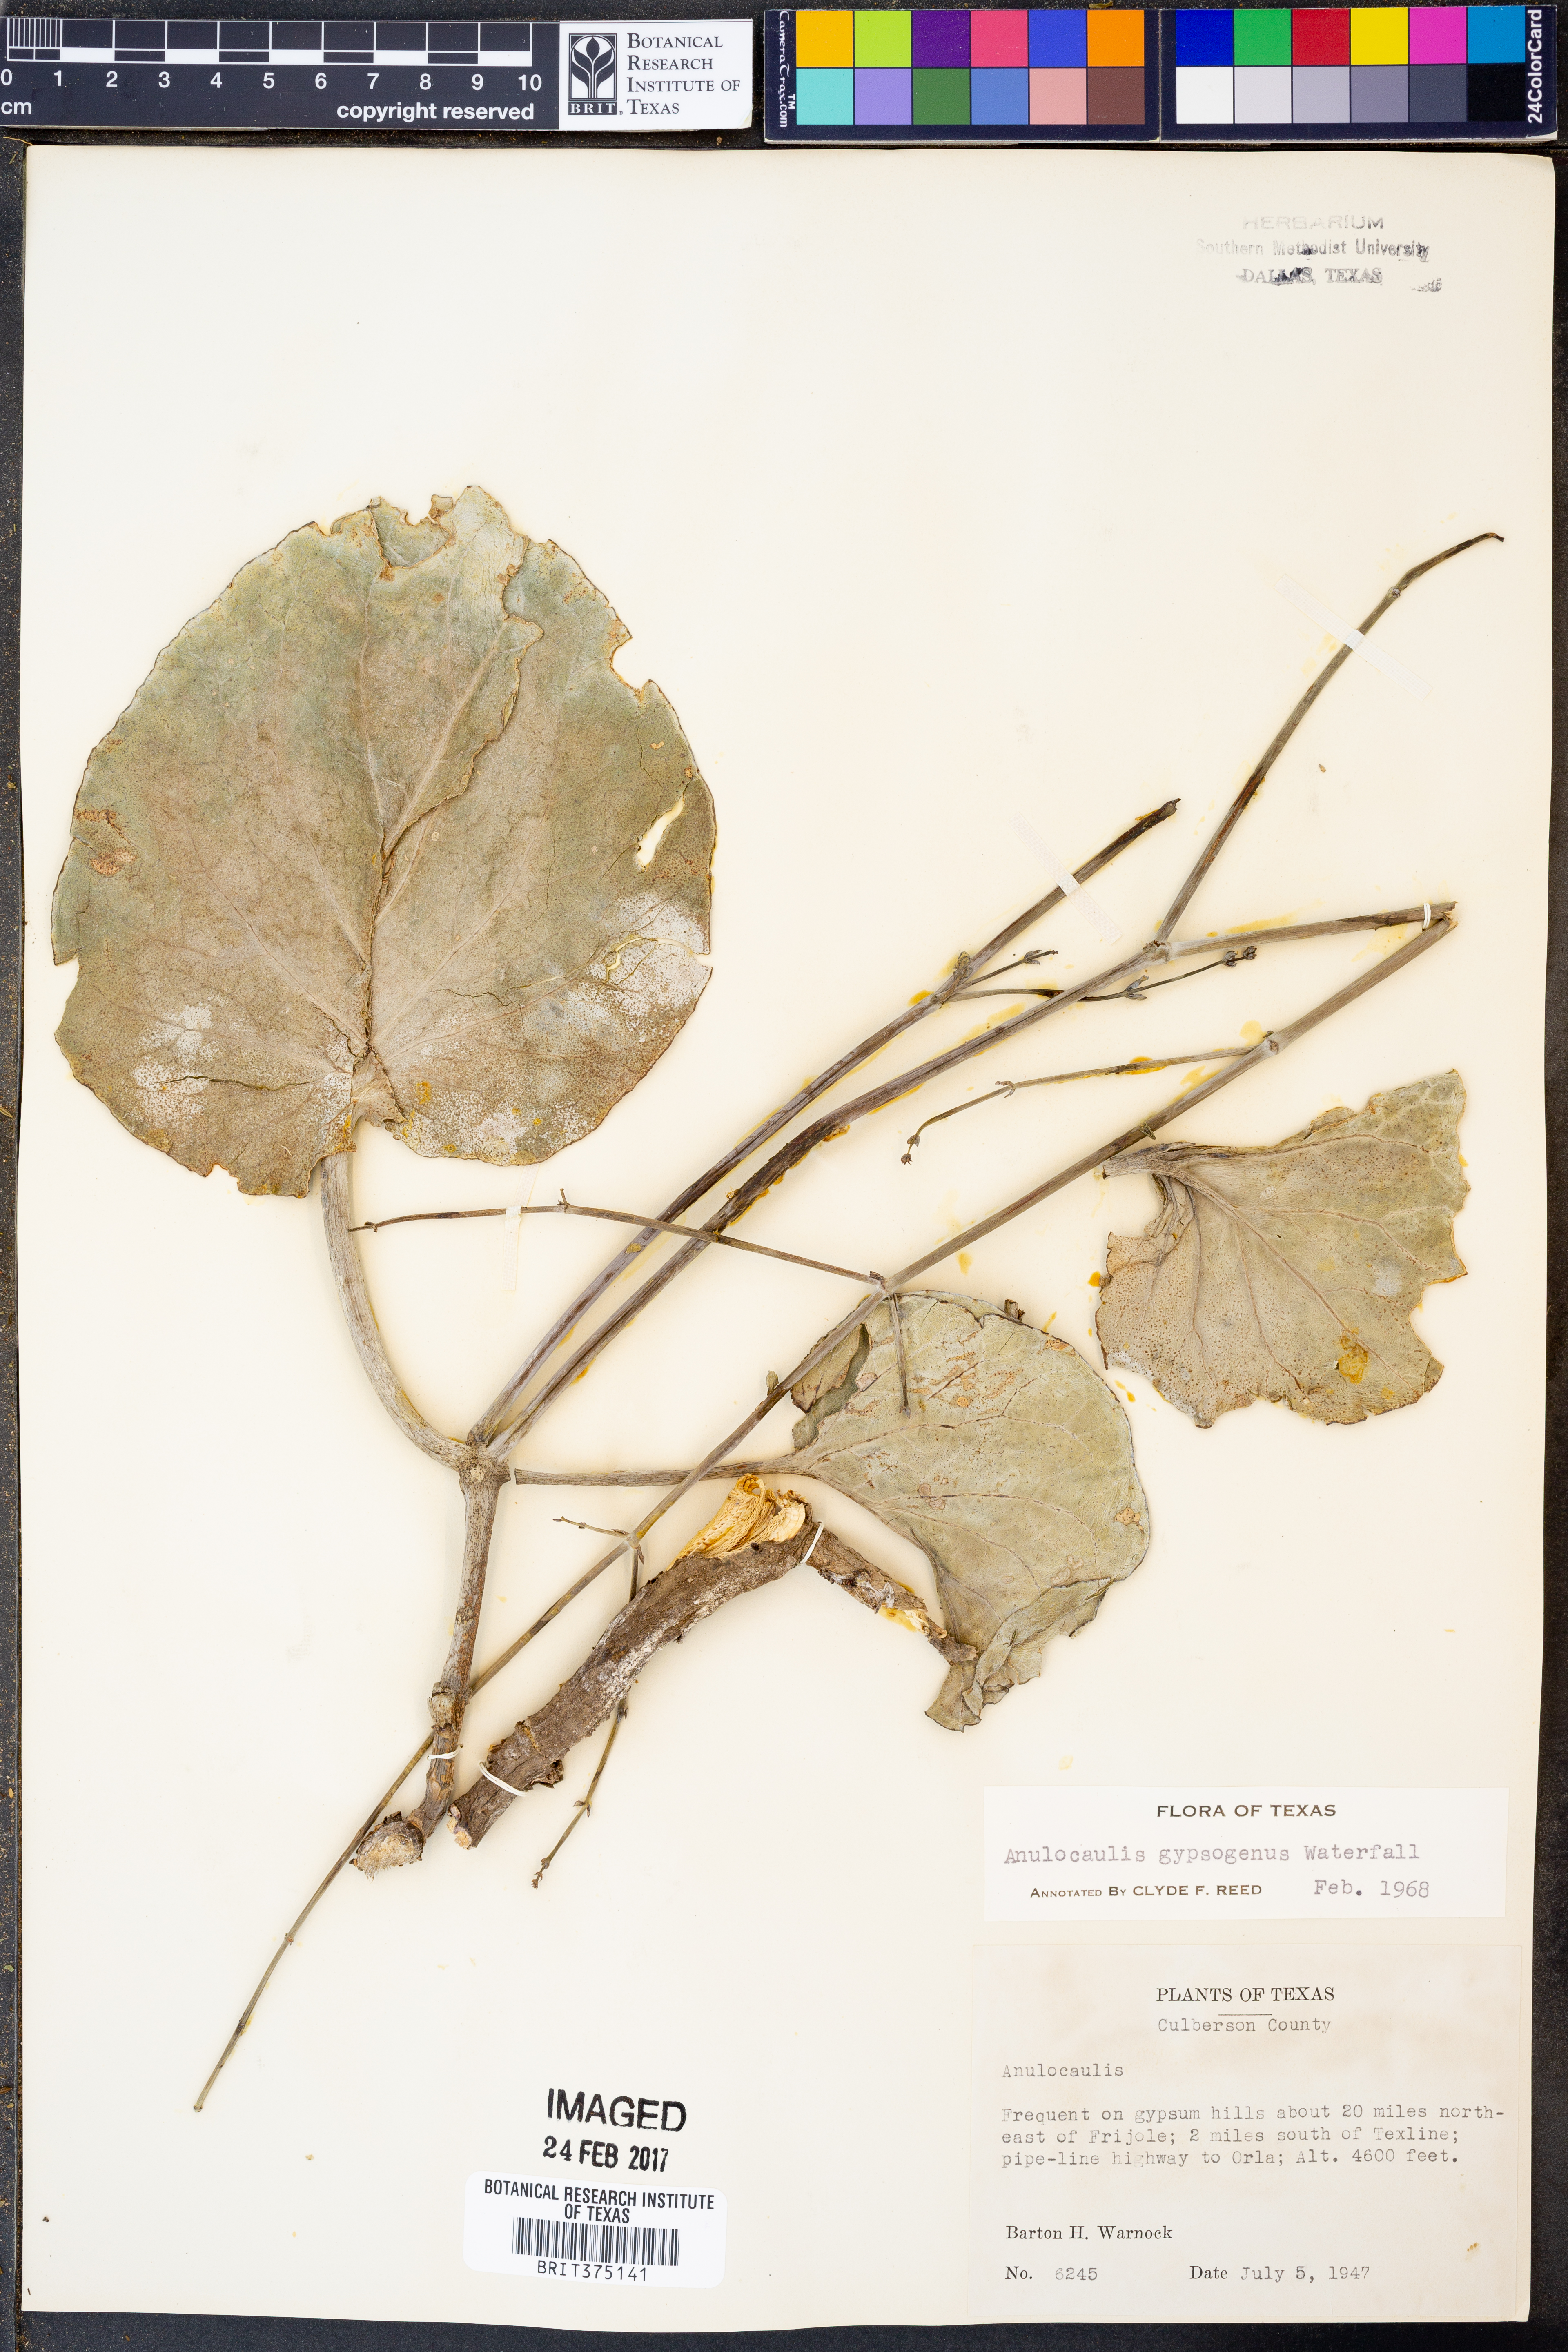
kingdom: Plantae
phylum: Tracheophyta
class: Magnoliopsida
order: Caryophyllales
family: Nyctaginaceae
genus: Anulocaulis
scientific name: Anulocaulis leiosolenus
